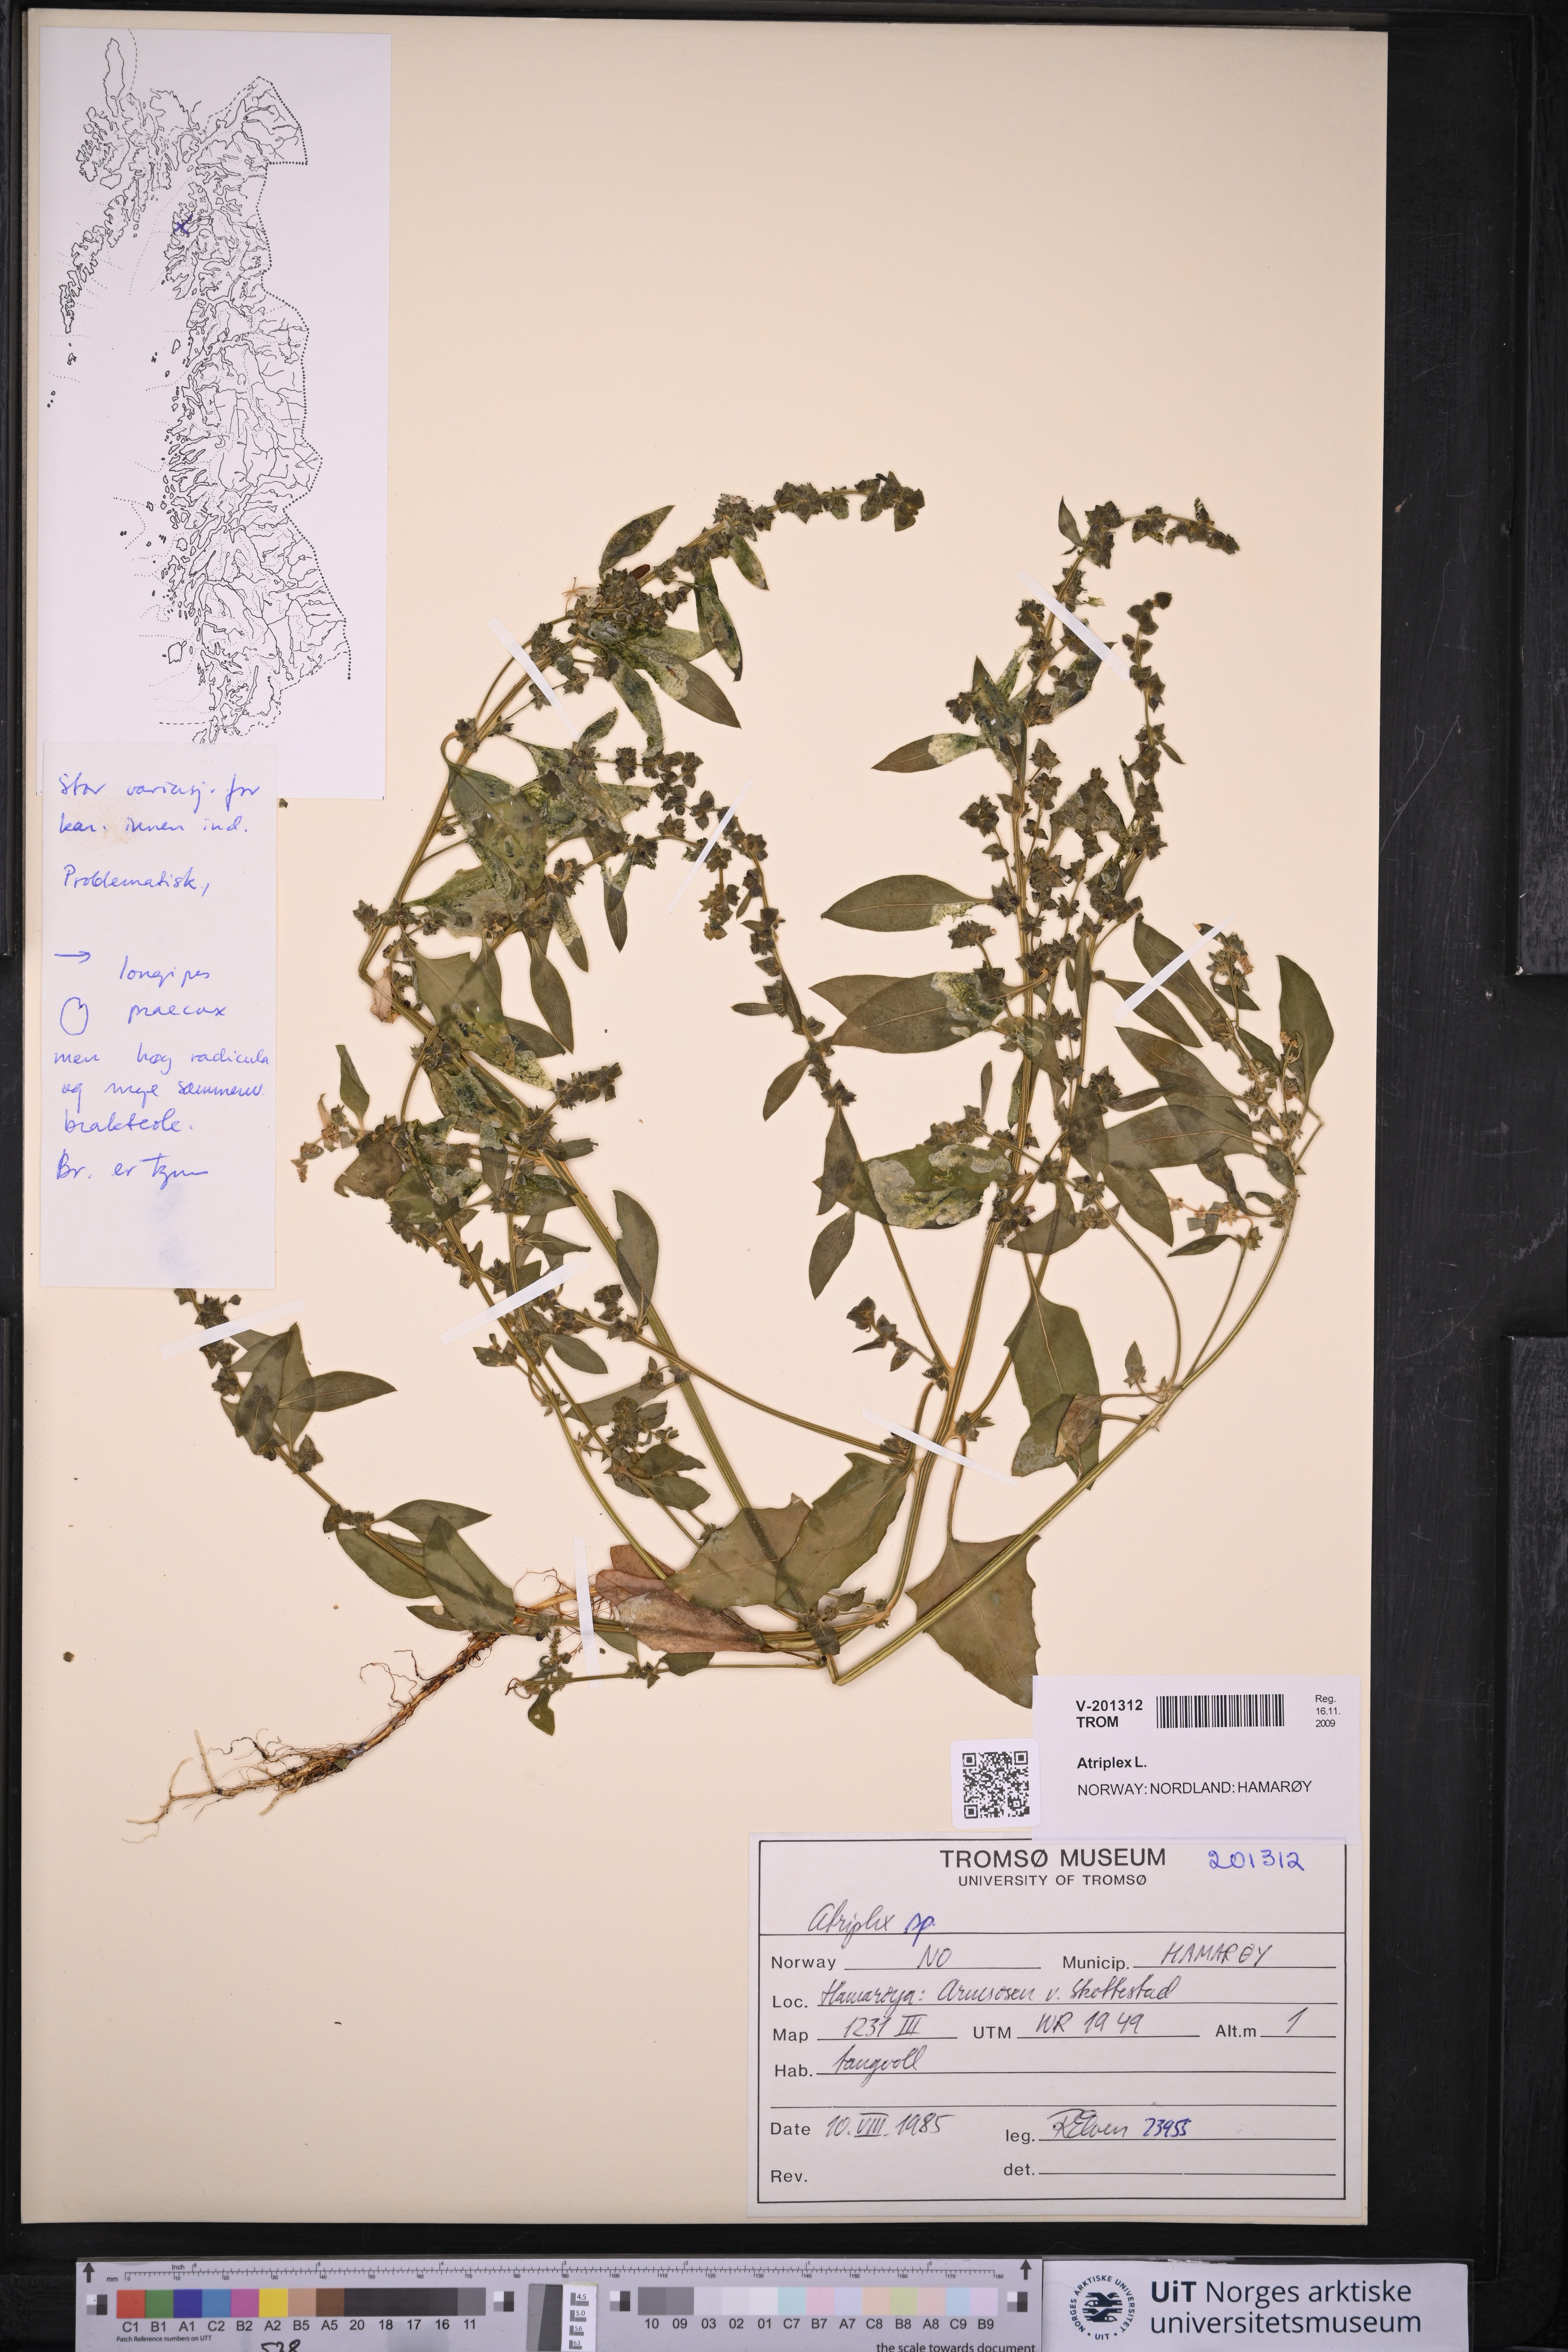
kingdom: Plantae
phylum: Tracheophyta
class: Magnoliopsida
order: Caryophyllales
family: Amaranthaceae
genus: Atriplex
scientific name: Atriplex
